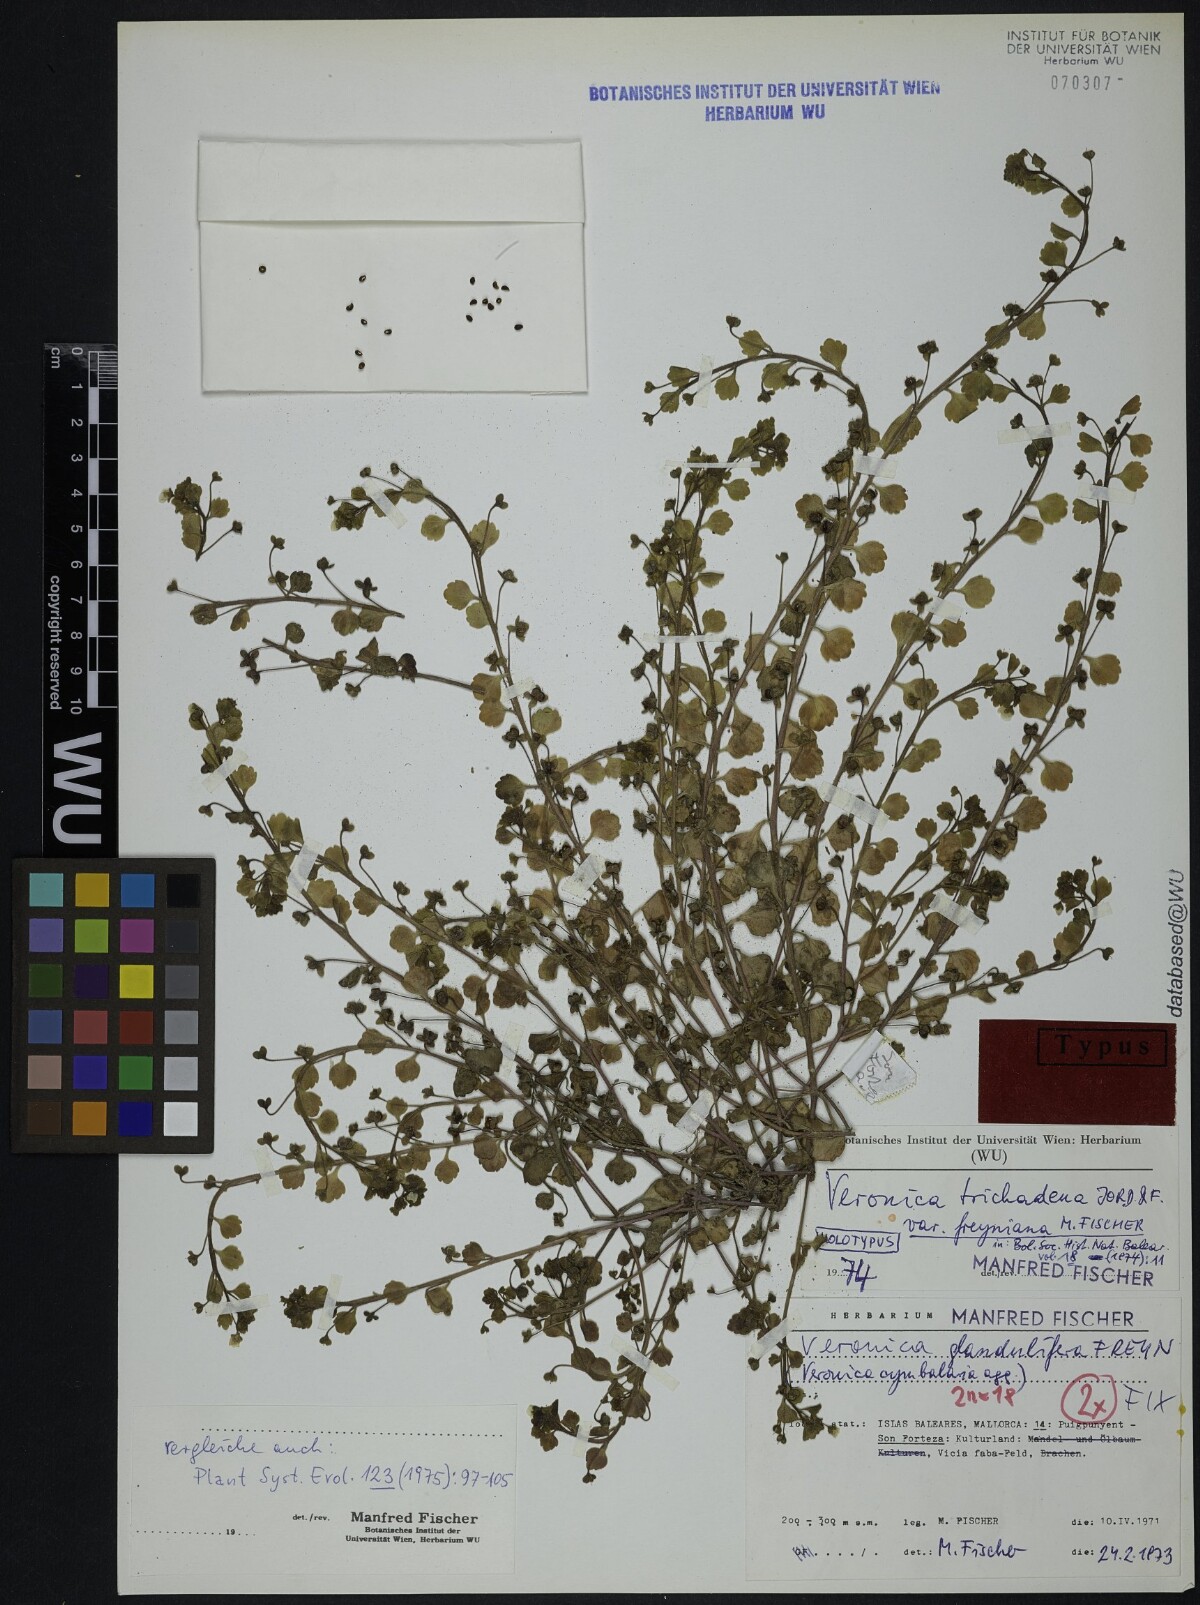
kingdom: Plantae
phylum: Tracheophyta
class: Magnoliopsida
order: Lamiales
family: Plantaginaceae
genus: Veronica
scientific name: Veronica trichadena
